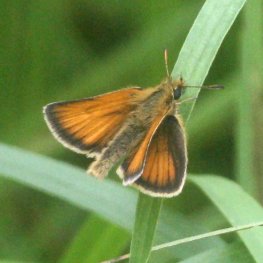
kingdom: Animalia
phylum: Arthropoda
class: Insecta
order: Lepidoptera
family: Hesperiidae
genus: Thymelicus
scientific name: Thymelicus lineola
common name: European Skipper
